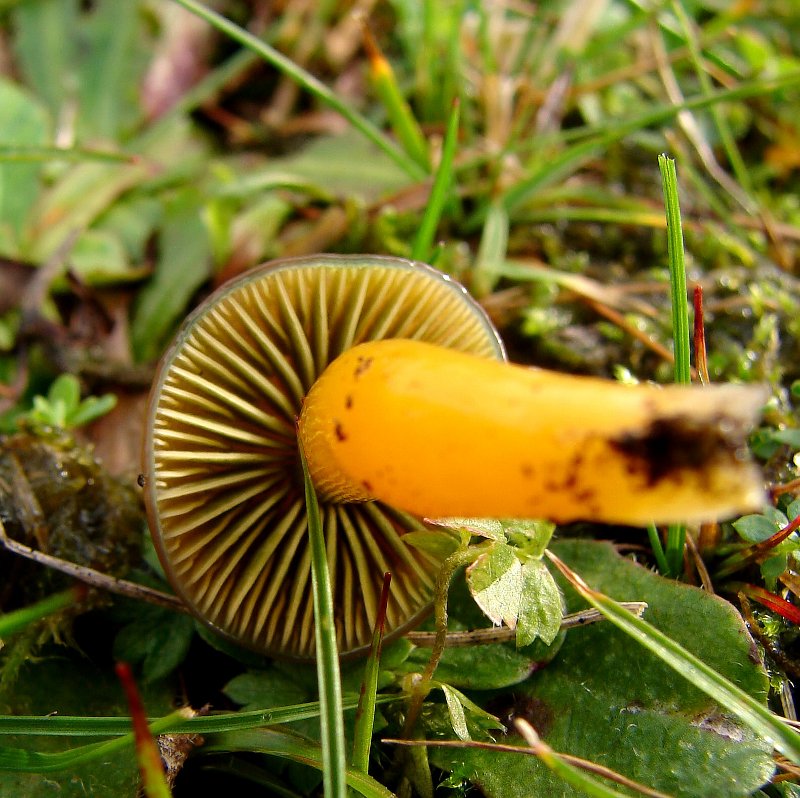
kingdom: Fungi
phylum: Basidiomycota
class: Agaricomycetes
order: Agaricales
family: Hygrophoraceae
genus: Gliophorus
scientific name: Gliophorus psittacinus
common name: papegøje-vokshat
